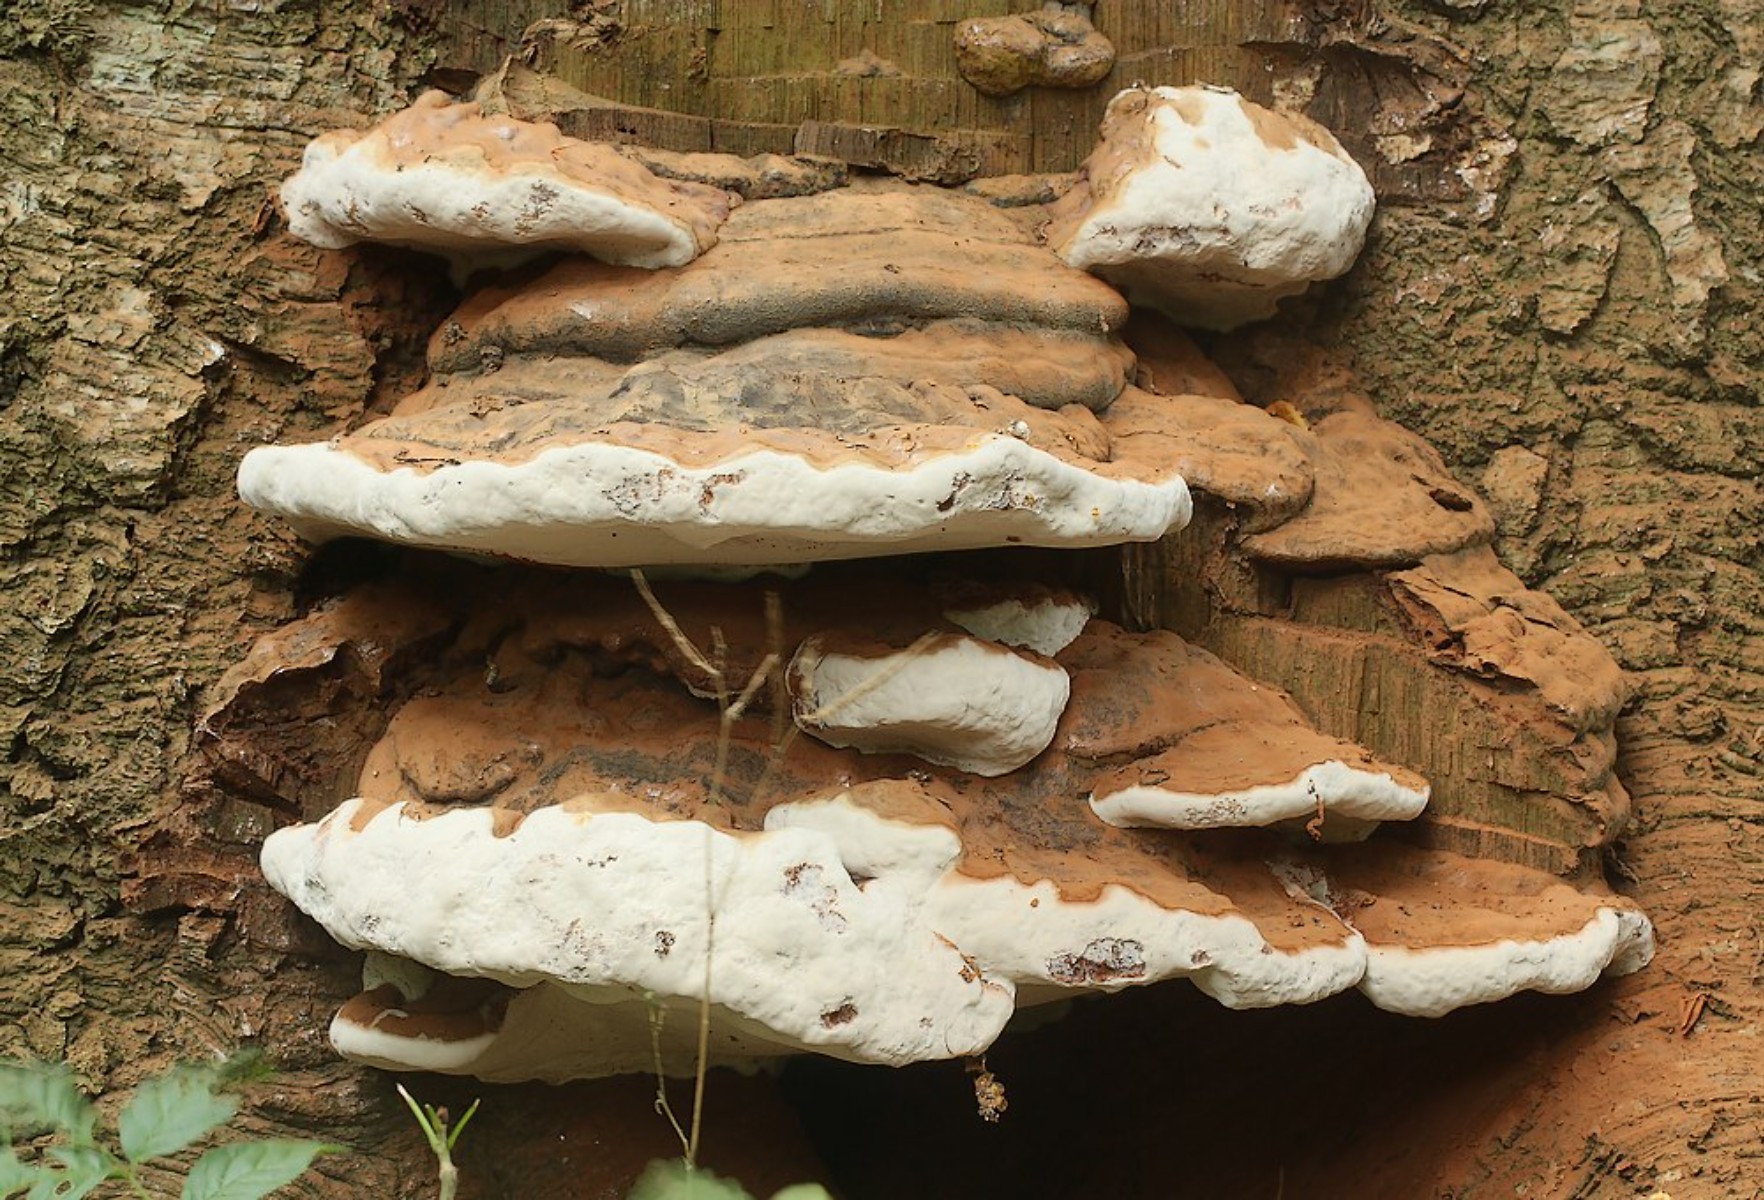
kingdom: Fungi
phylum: Basidiomycota
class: Agaricomycetes
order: Polyporales
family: Polyporaceae
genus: Ganoderma
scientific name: Ganoderma
